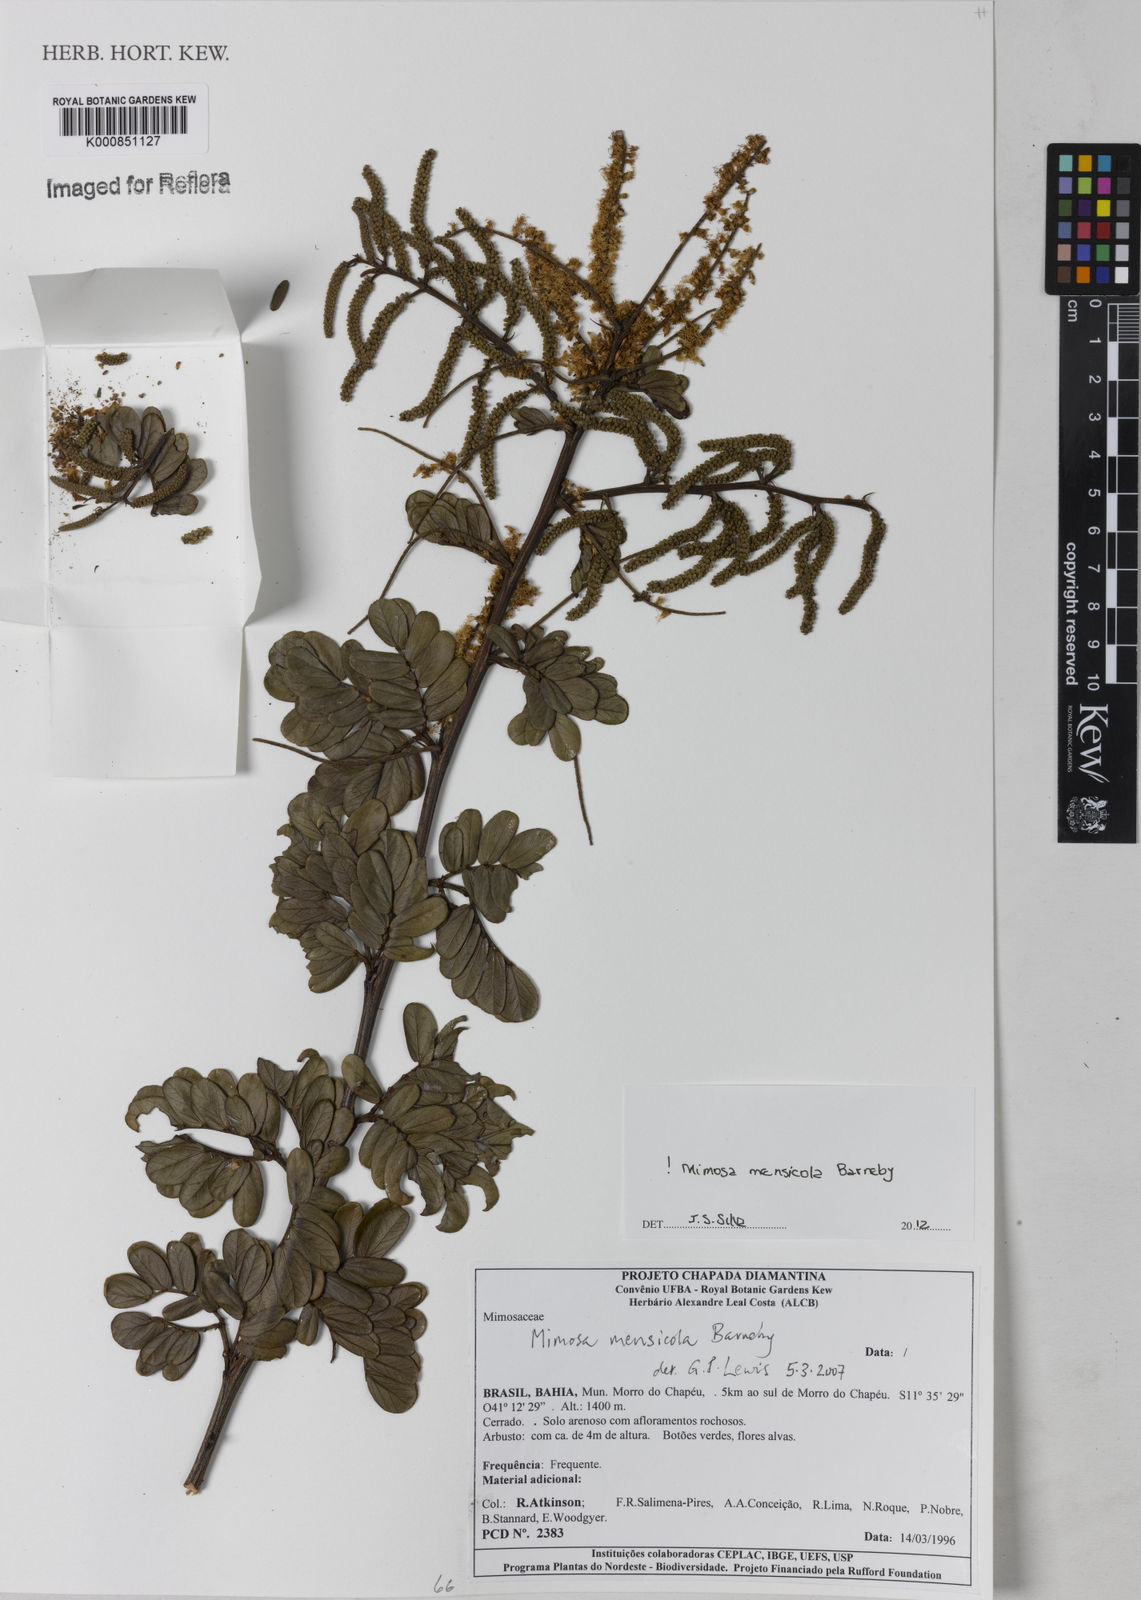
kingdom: Plantae
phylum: Tracheophyta
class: Magnoliopsida
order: Fabales
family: Fabaceae
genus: Mimosa
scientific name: Mimosa mensicola
